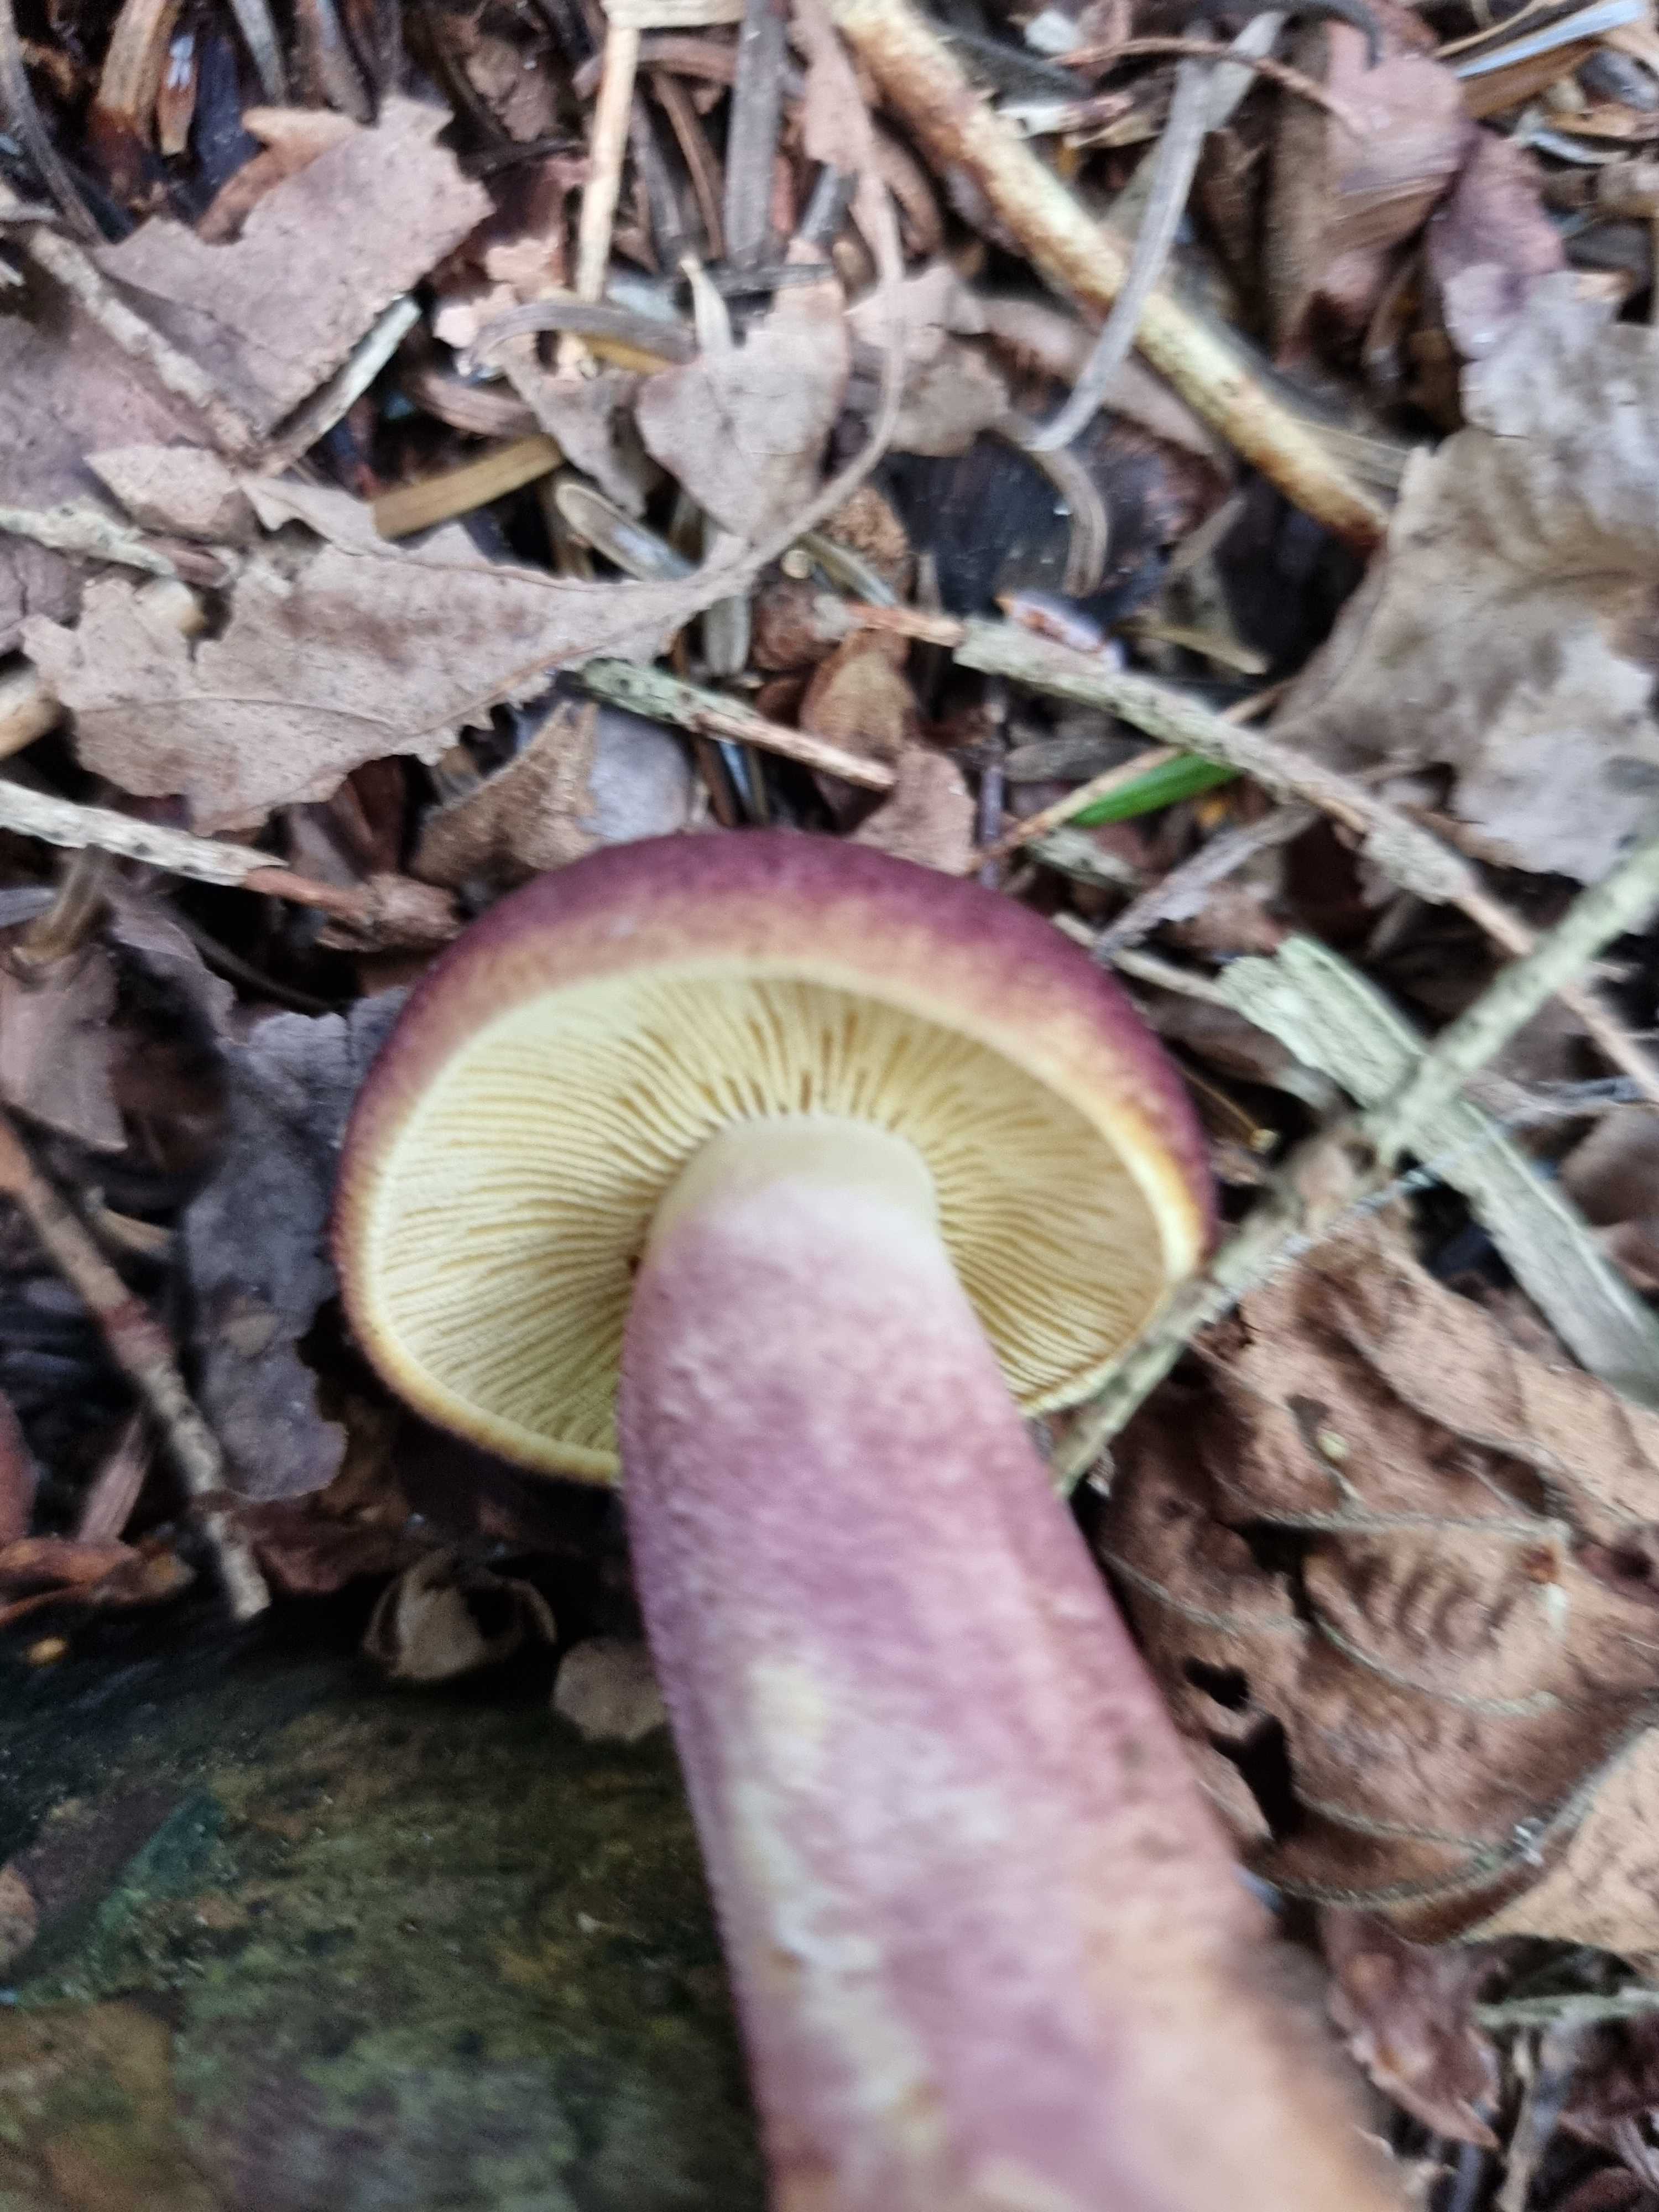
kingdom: Fungi
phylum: Basidiomycota
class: Agaricomycetes
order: Agaricales
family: Tricholomataceae
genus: Tricholomopsis
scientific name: Tricholomopsis rutilans
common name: purpur-væbnerhat
